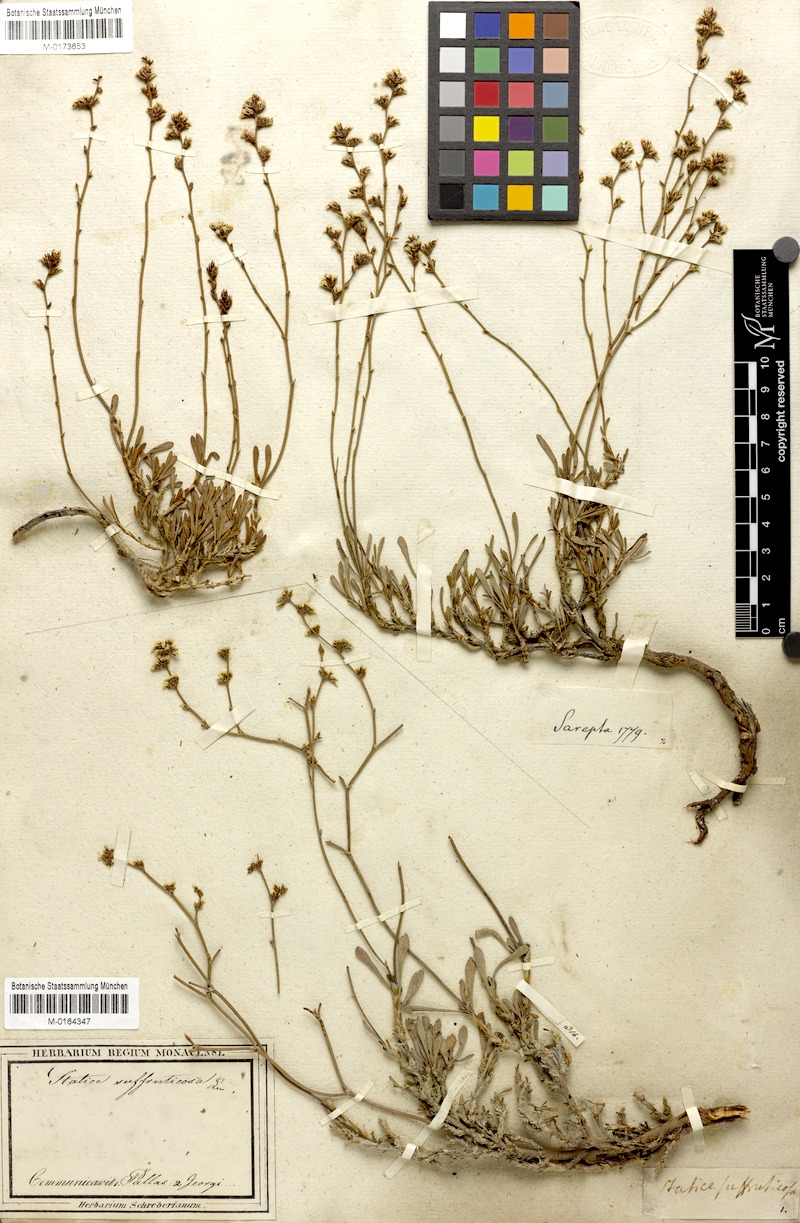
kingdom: Plantae
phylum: Tracheophyta
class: Magnoliopsida
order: Caryophyllales
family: Plumbaginaceae
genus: Limonium
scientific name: Limonium suffruticosum
